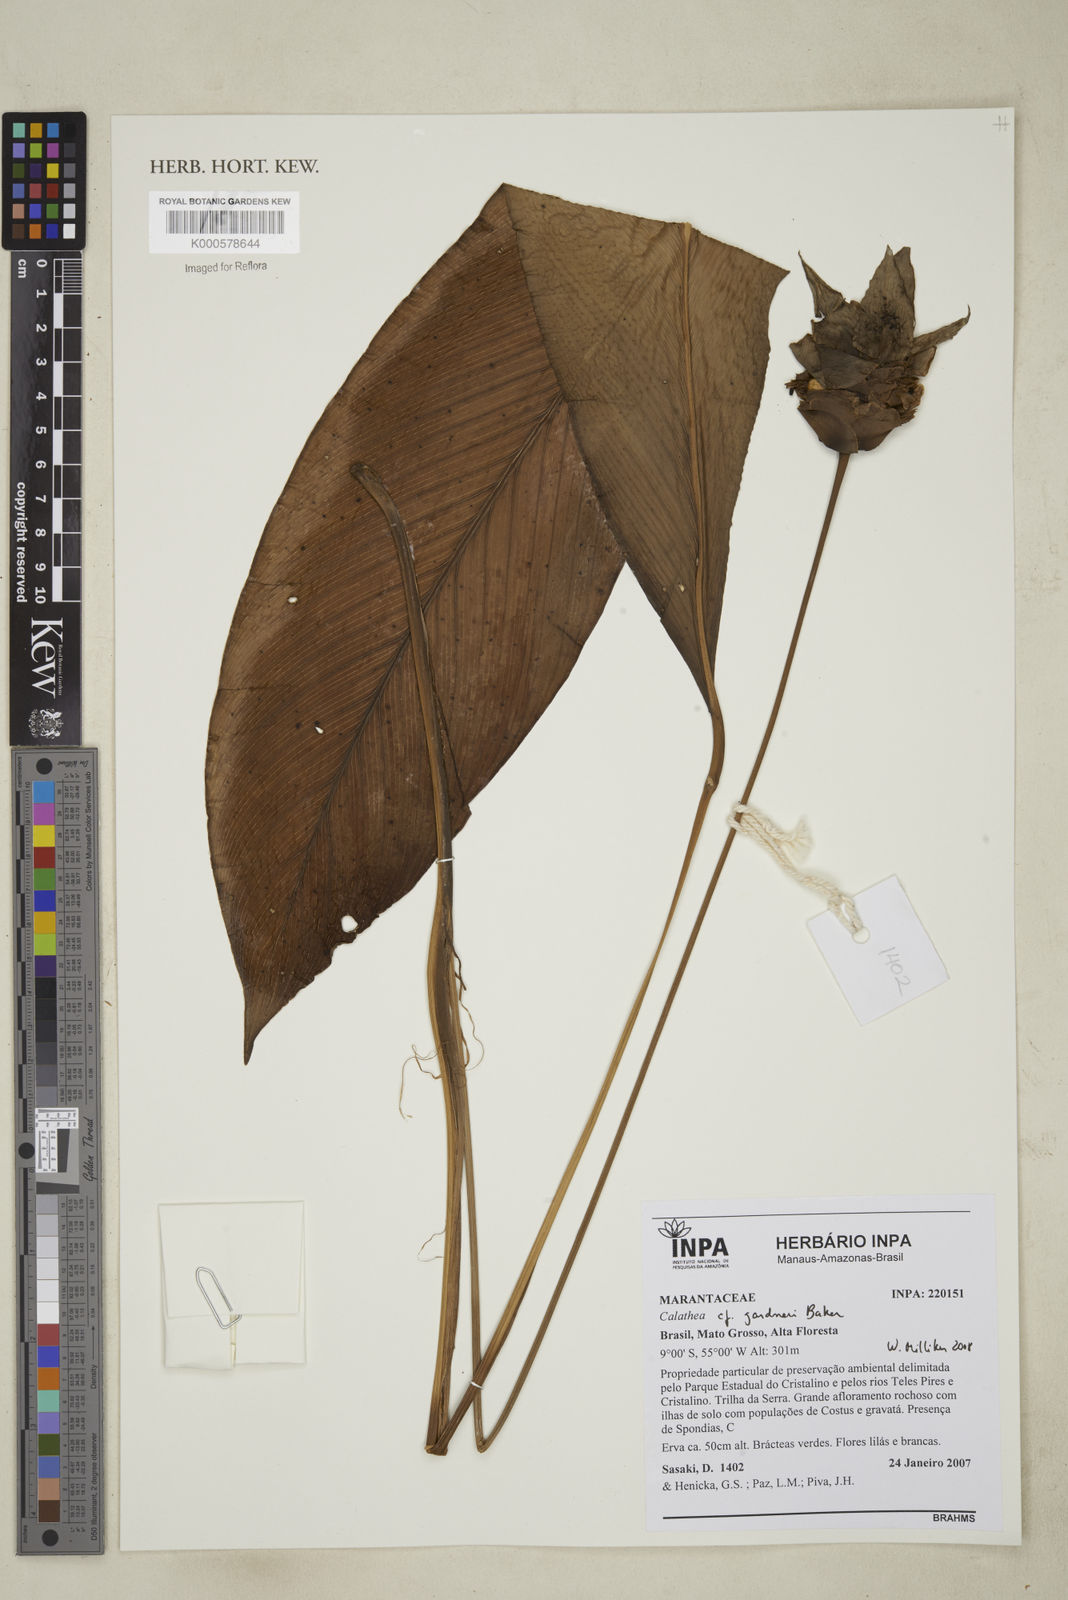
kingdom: Plantae
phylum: Tracheophyta
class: Liliopsida
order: Zingiberales
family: Marantaceae
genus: Goeppertia
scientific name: Goeppertia gardneri
